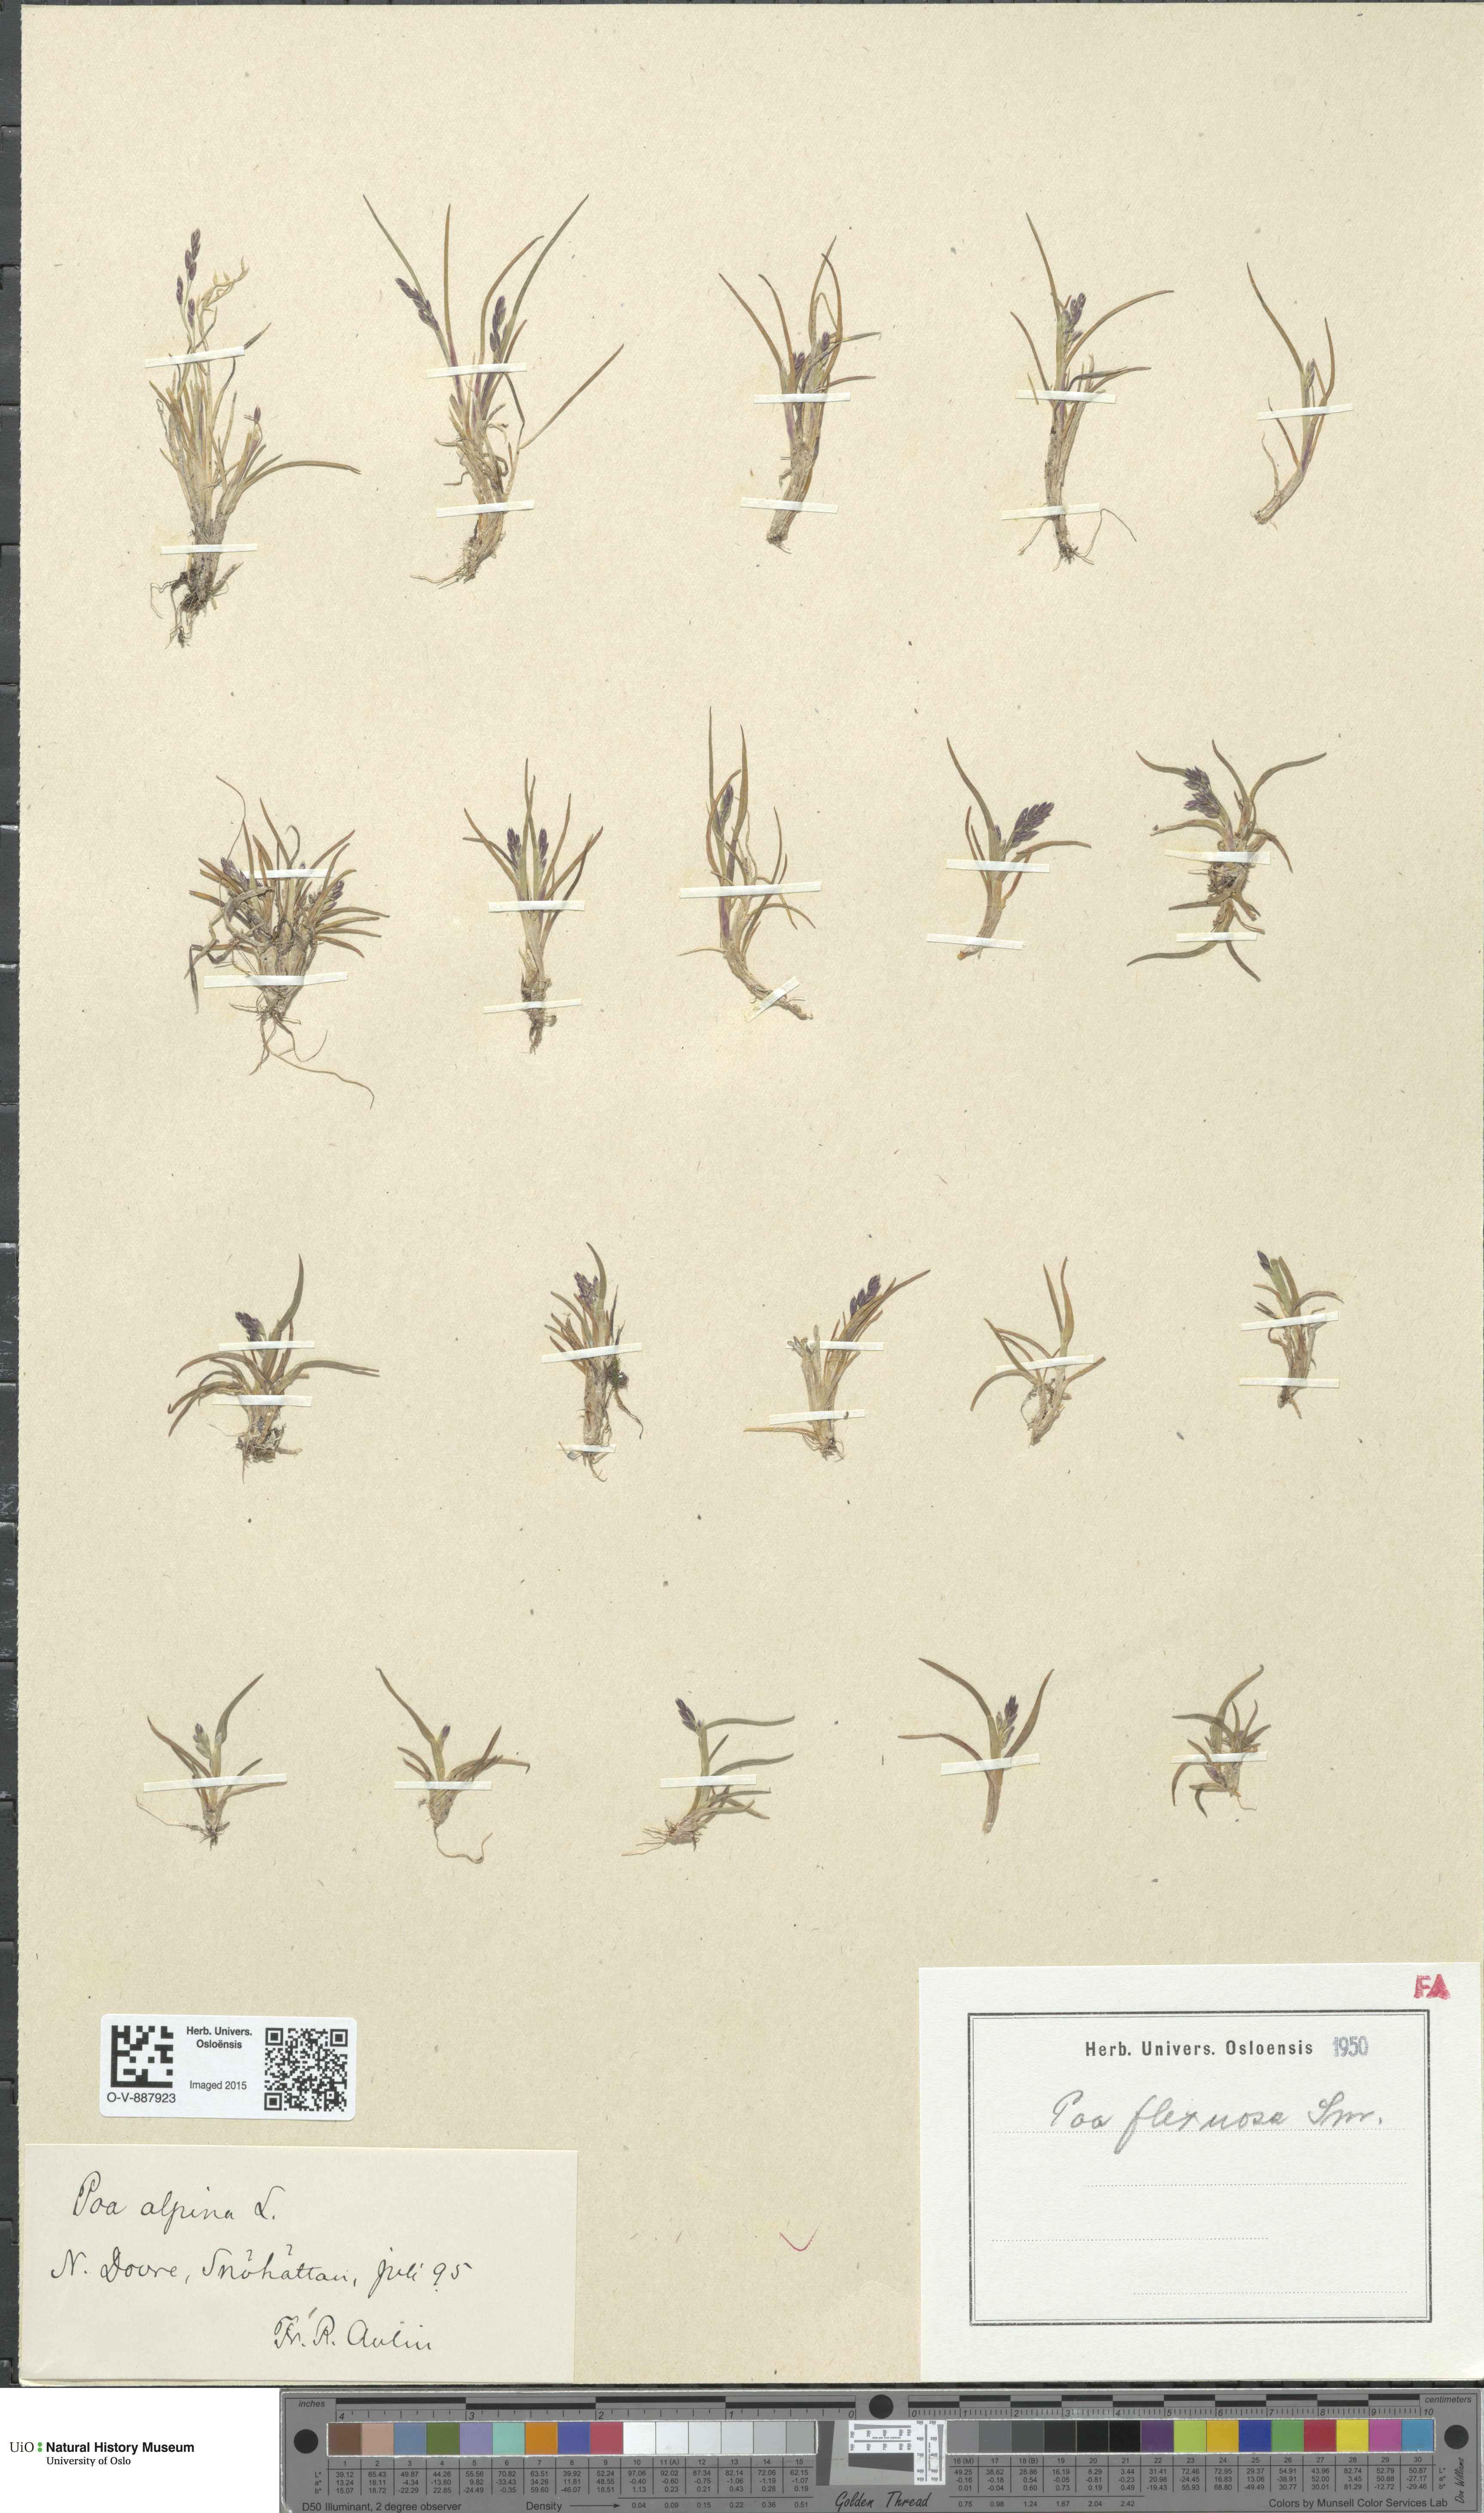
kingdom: Plantae
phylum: Tracheophyta
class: Liliopsida
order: Poales
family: Poaceae
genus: Poa
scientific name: Poa flexuosa
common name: Wavy meadow-grass
